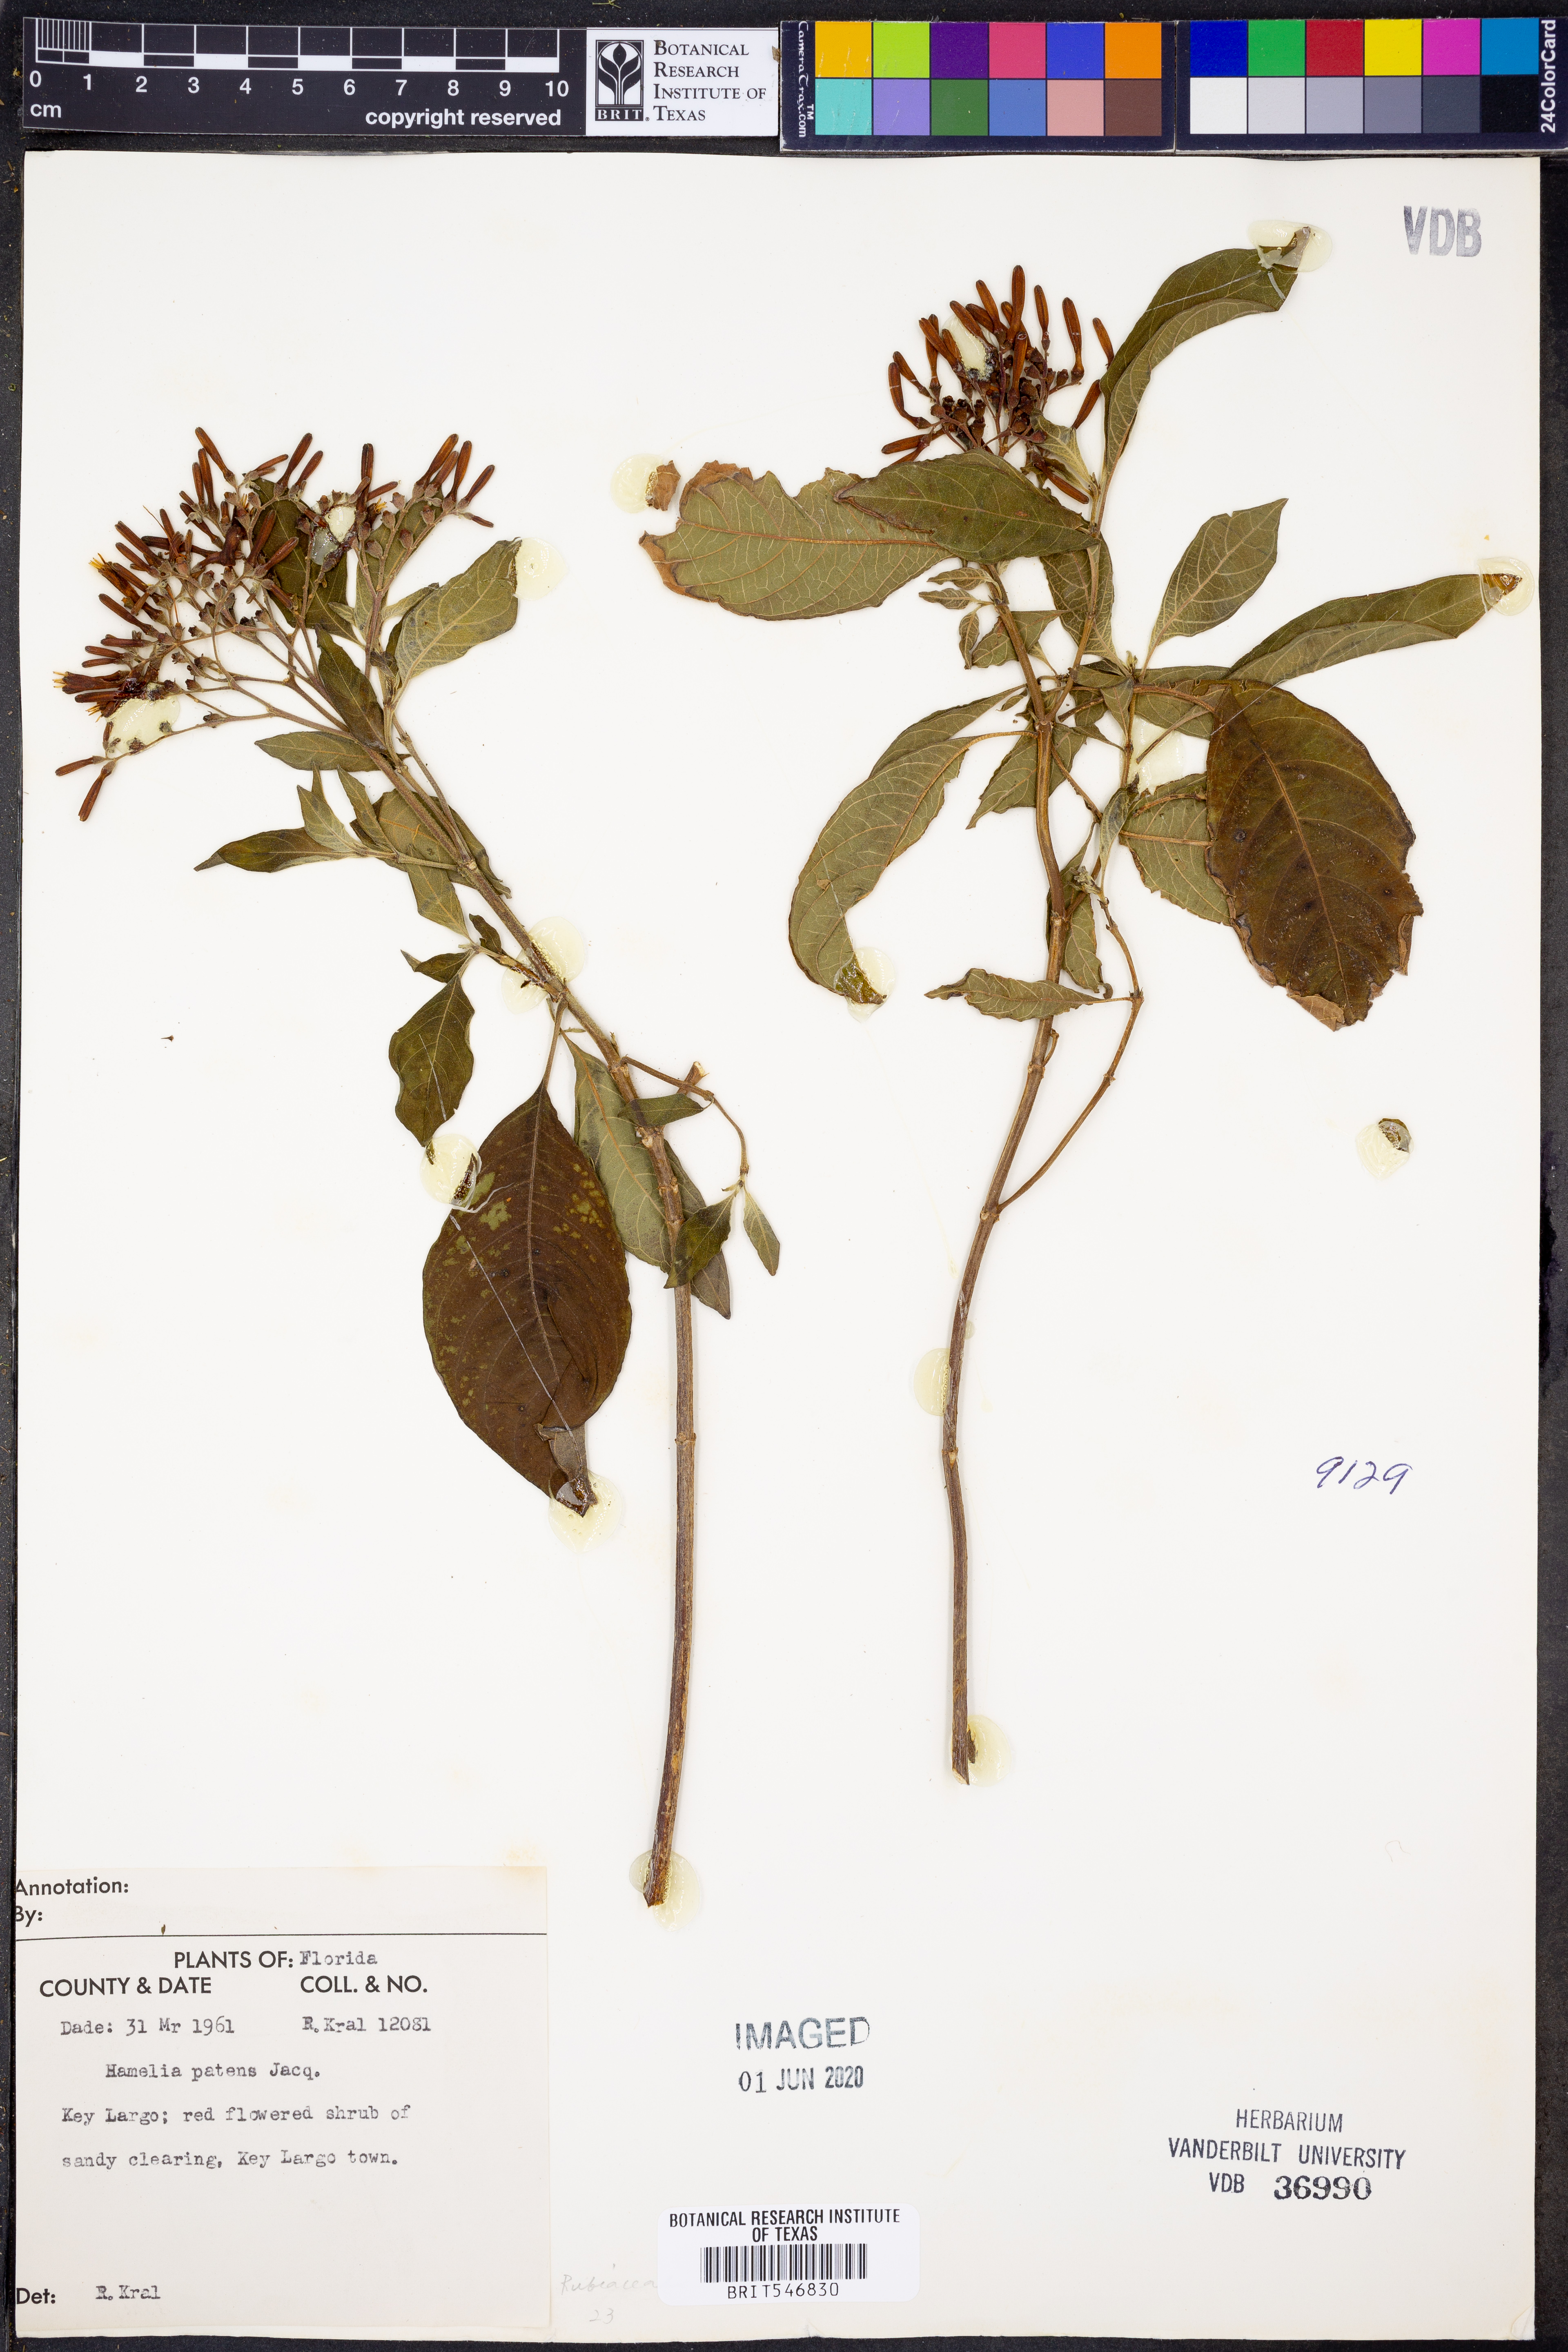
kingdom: Plantae
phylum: Tracheophyta
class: Magnoliopsida
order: Gentianales
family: Rubiaceae
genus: Hamelia
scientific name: Hamelia patens
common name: Redhead
